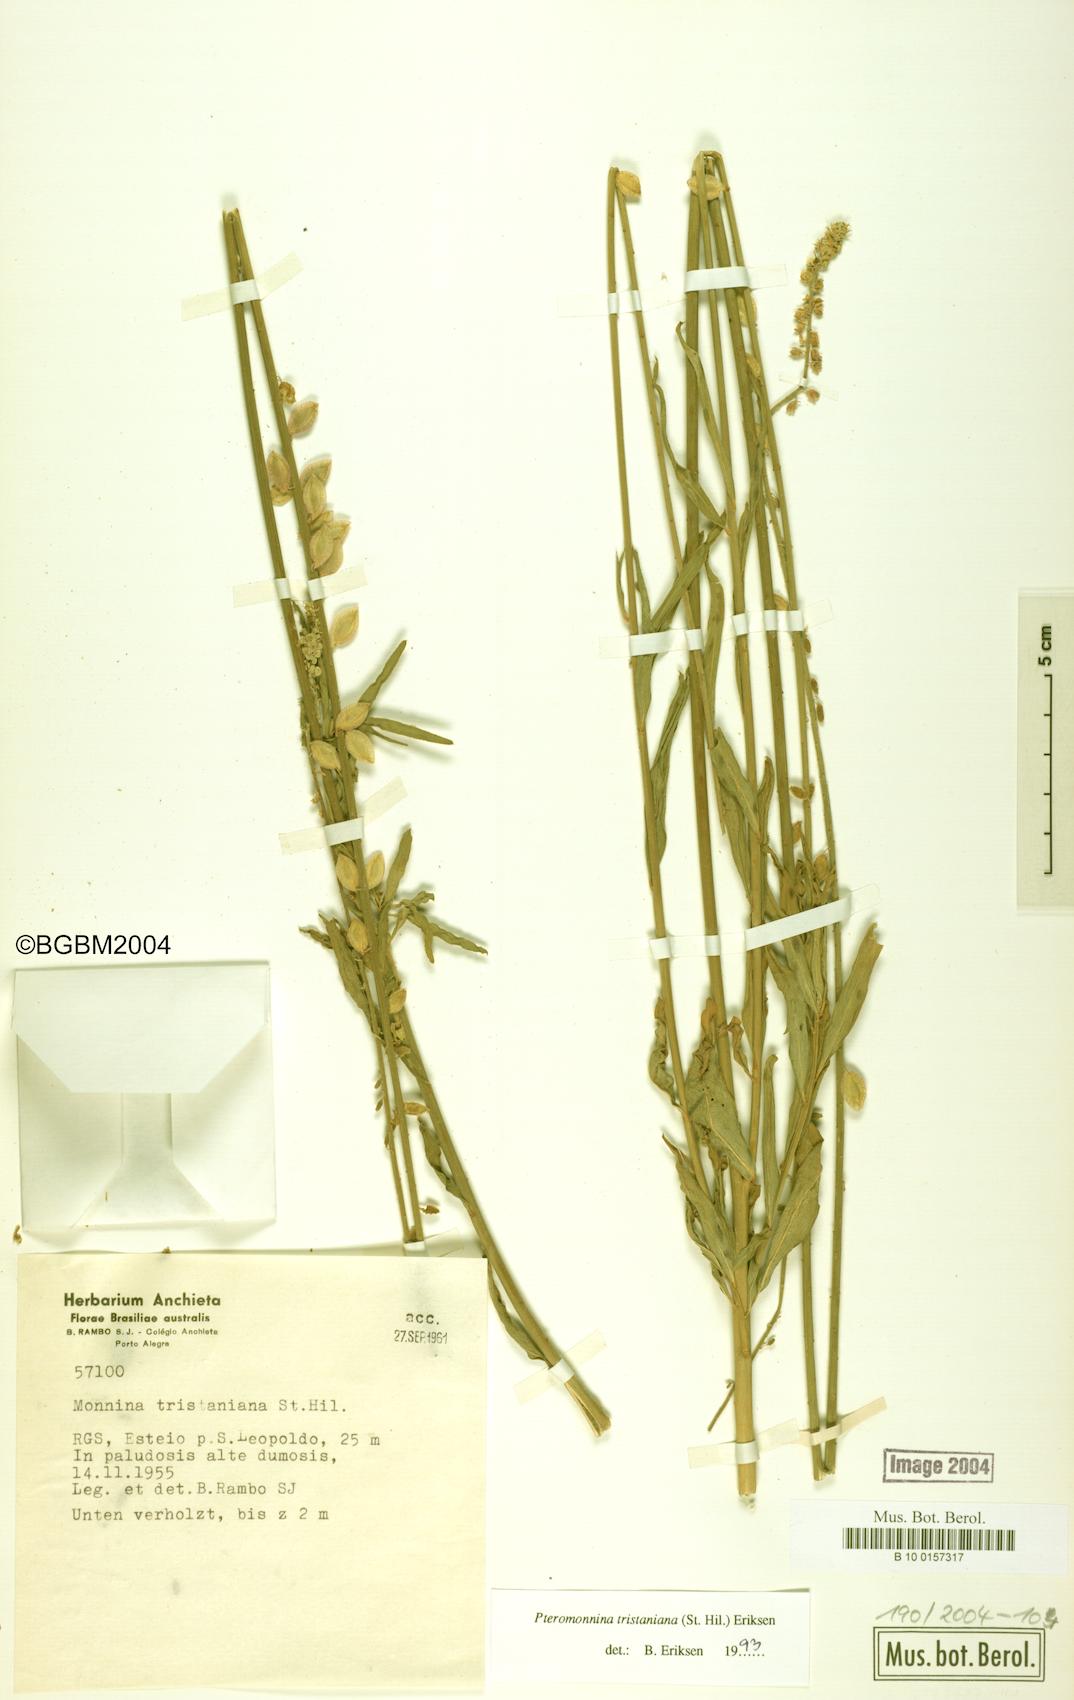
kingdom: Plantae
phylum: Tracheophyta
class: Magnoliopsida
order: Fabales
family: Polygalaceae
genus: Monnina
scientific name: Monnina tristaniana
